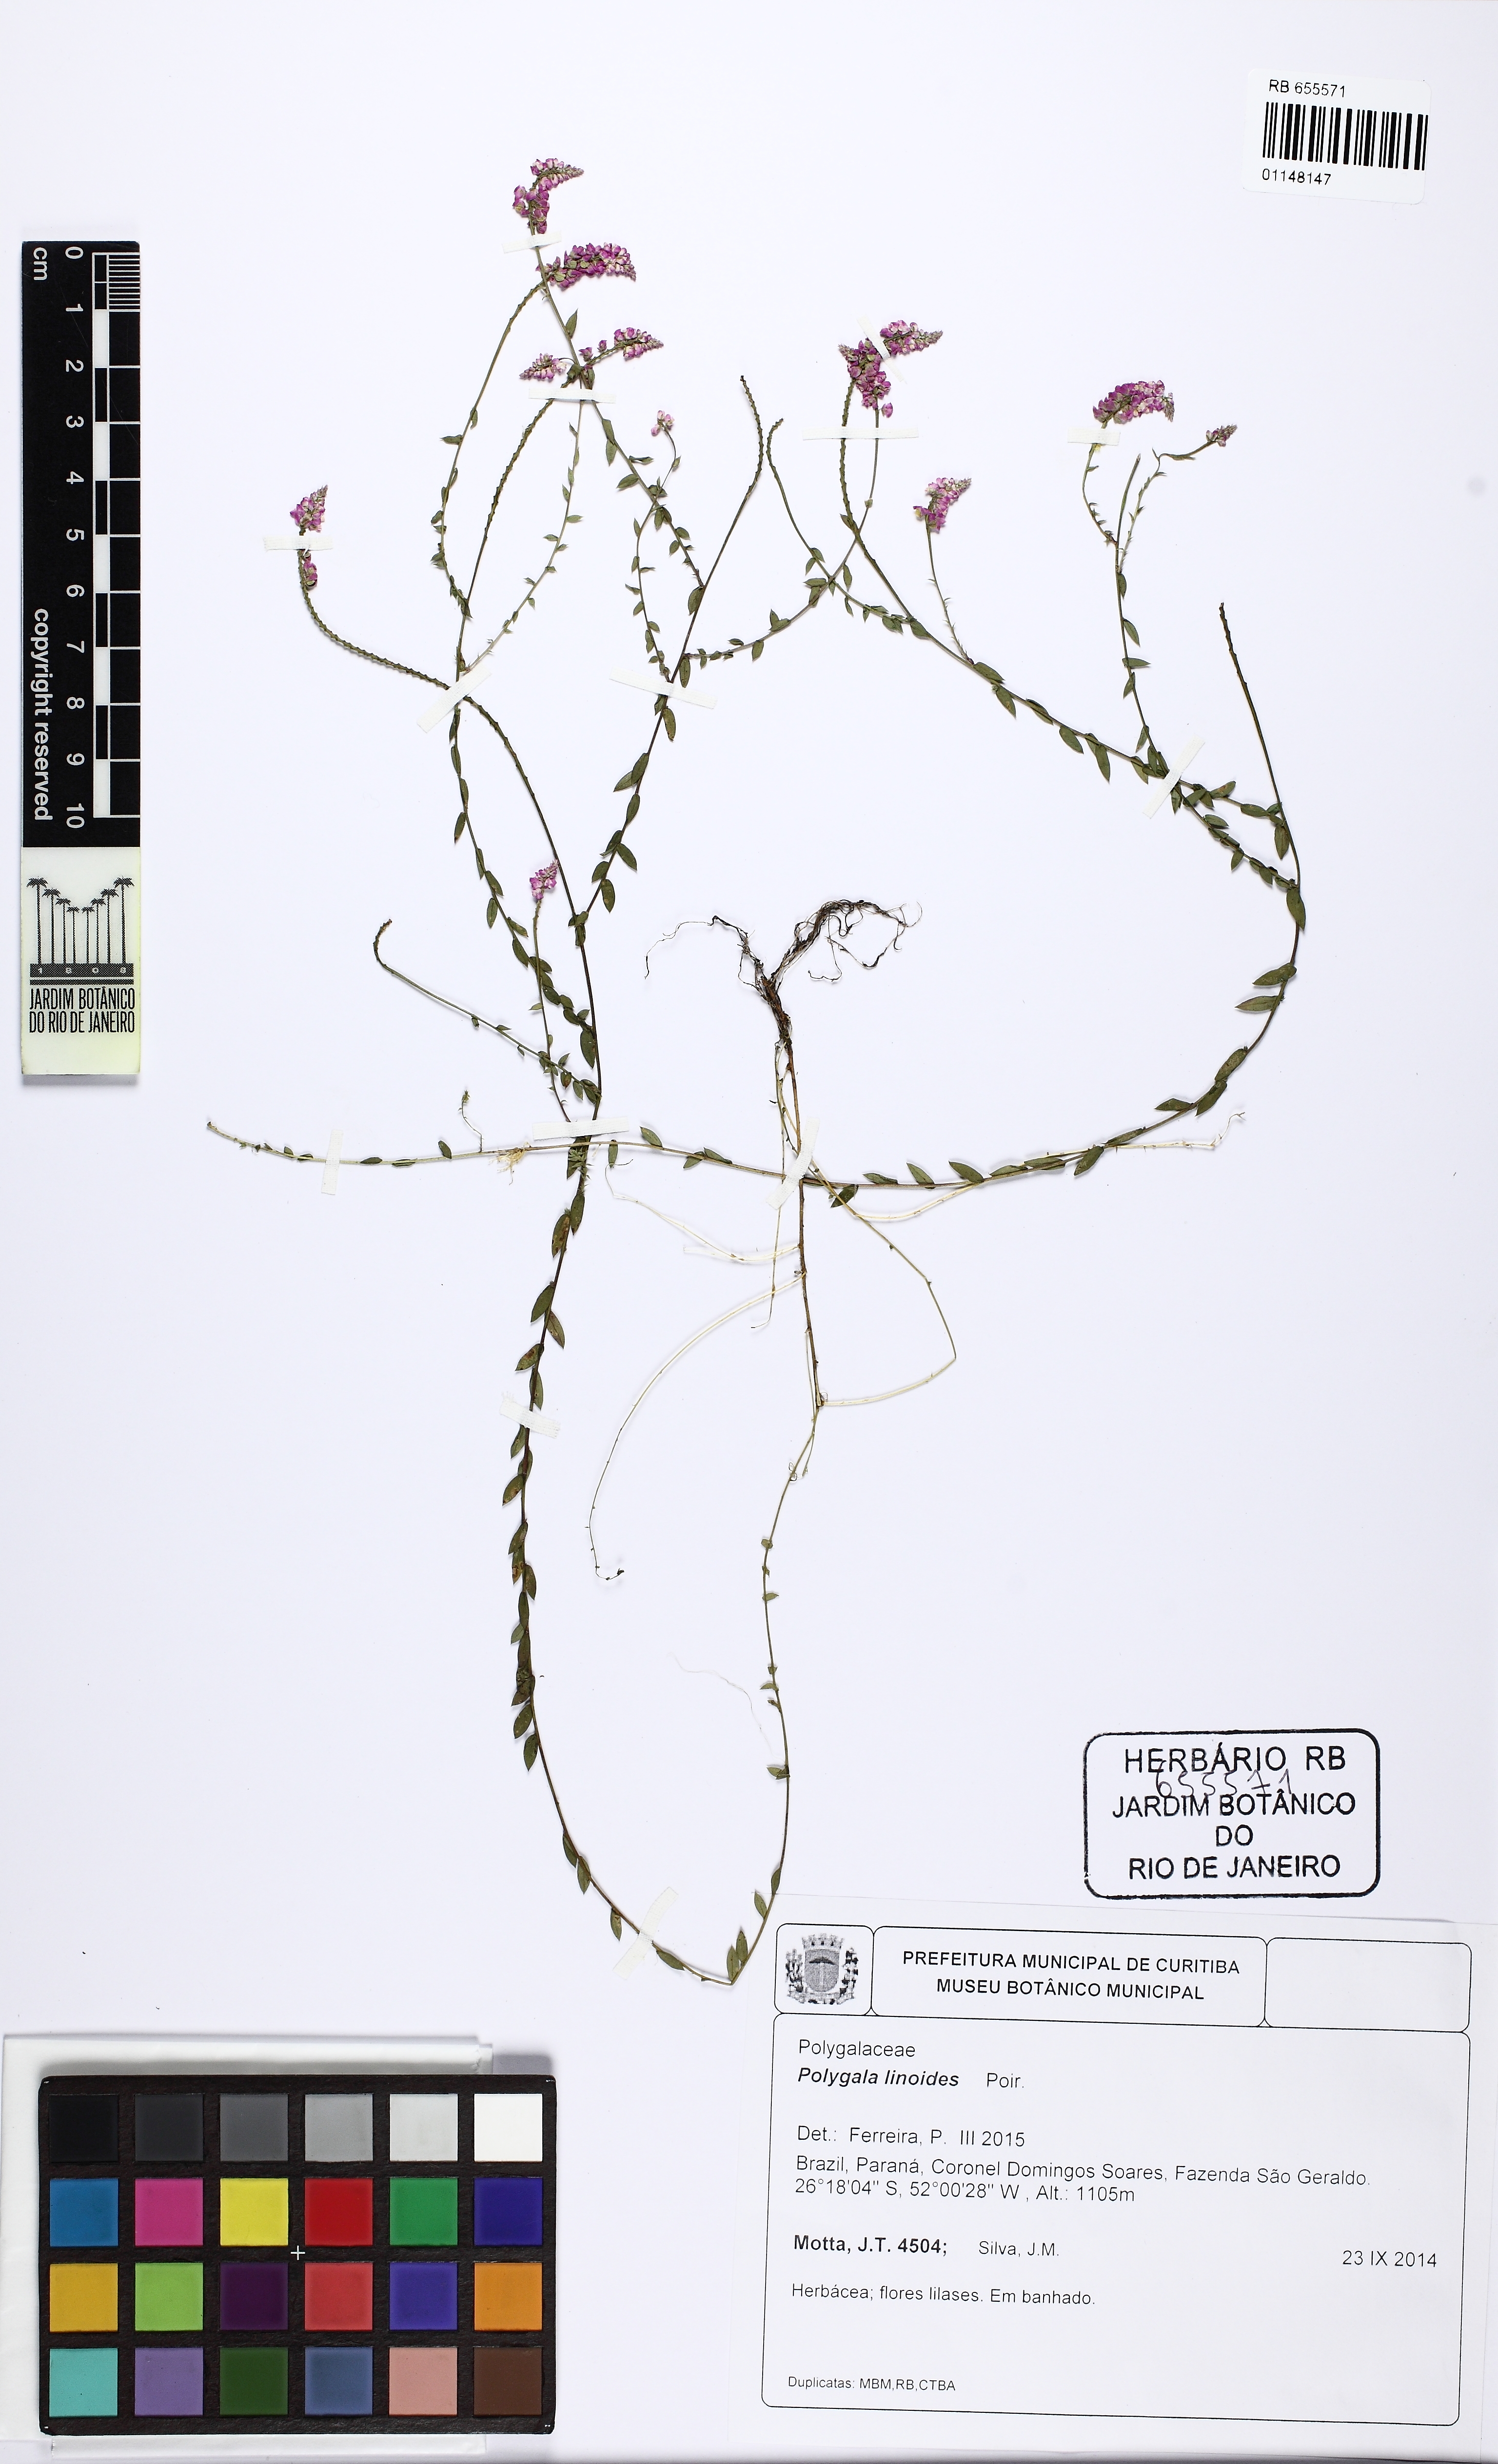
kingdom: Plantae
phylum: Tracheophyta
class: Magnoliopsida
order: Fabales
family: Polygalaceae
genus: Polygala
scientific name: Polygala linoides
